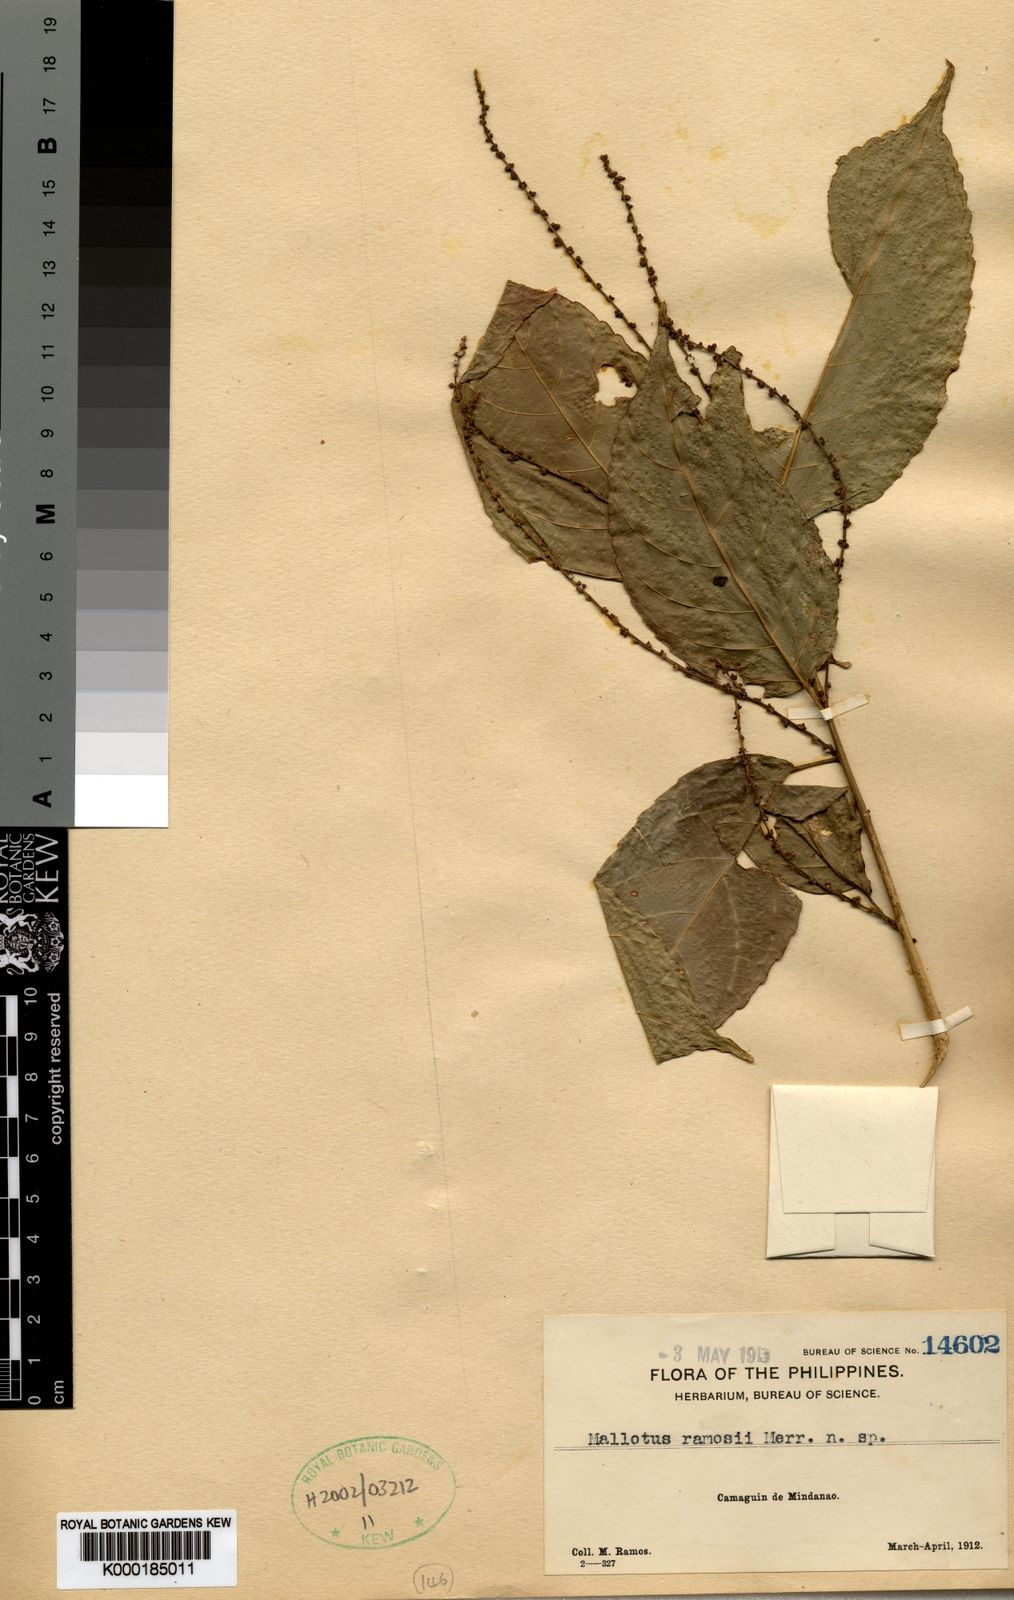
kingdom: Plantae
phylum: Tracheophyta
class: Magnoliopsida
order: Malpighiales
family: Euphorbiaceae
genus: Cleidion
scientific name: Cleidion ramosii
